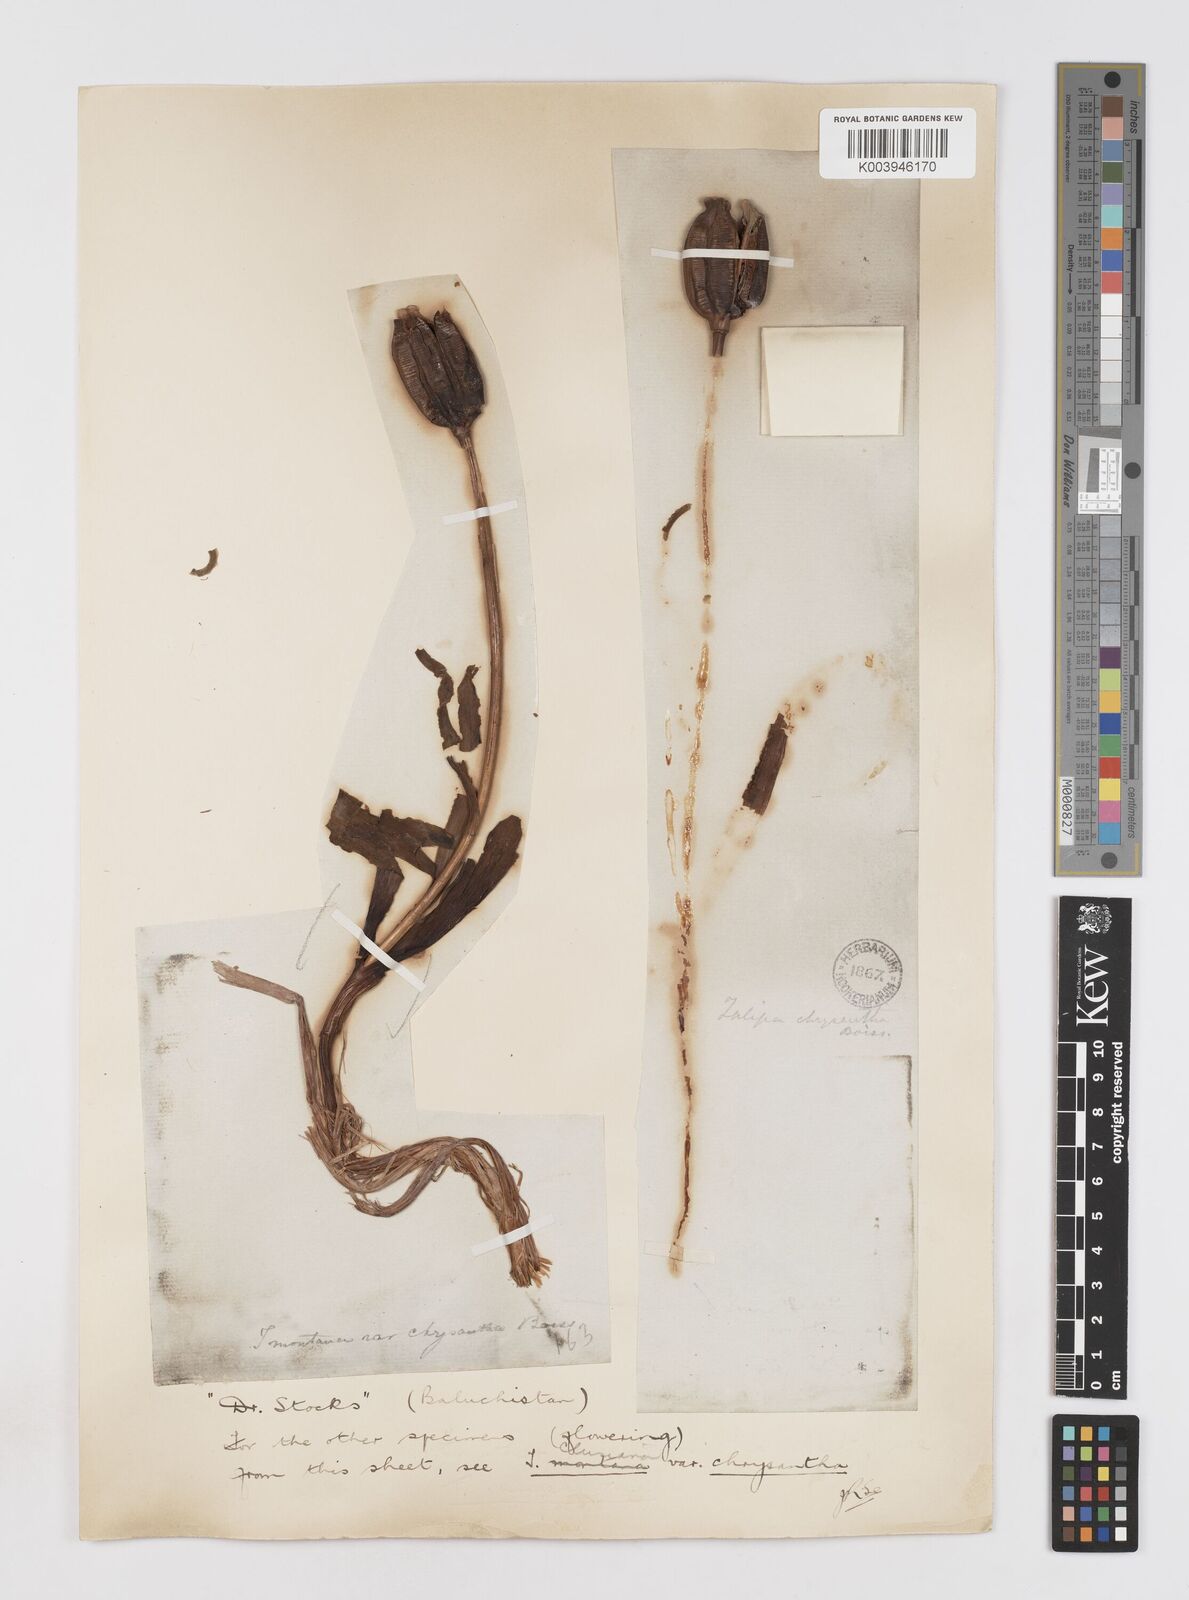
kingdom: Plantae
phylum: Tracheophyta
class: Liliopsida
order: Liliales
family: Liliaceae
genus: Tulipa
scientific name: Tulipa borszczowii
